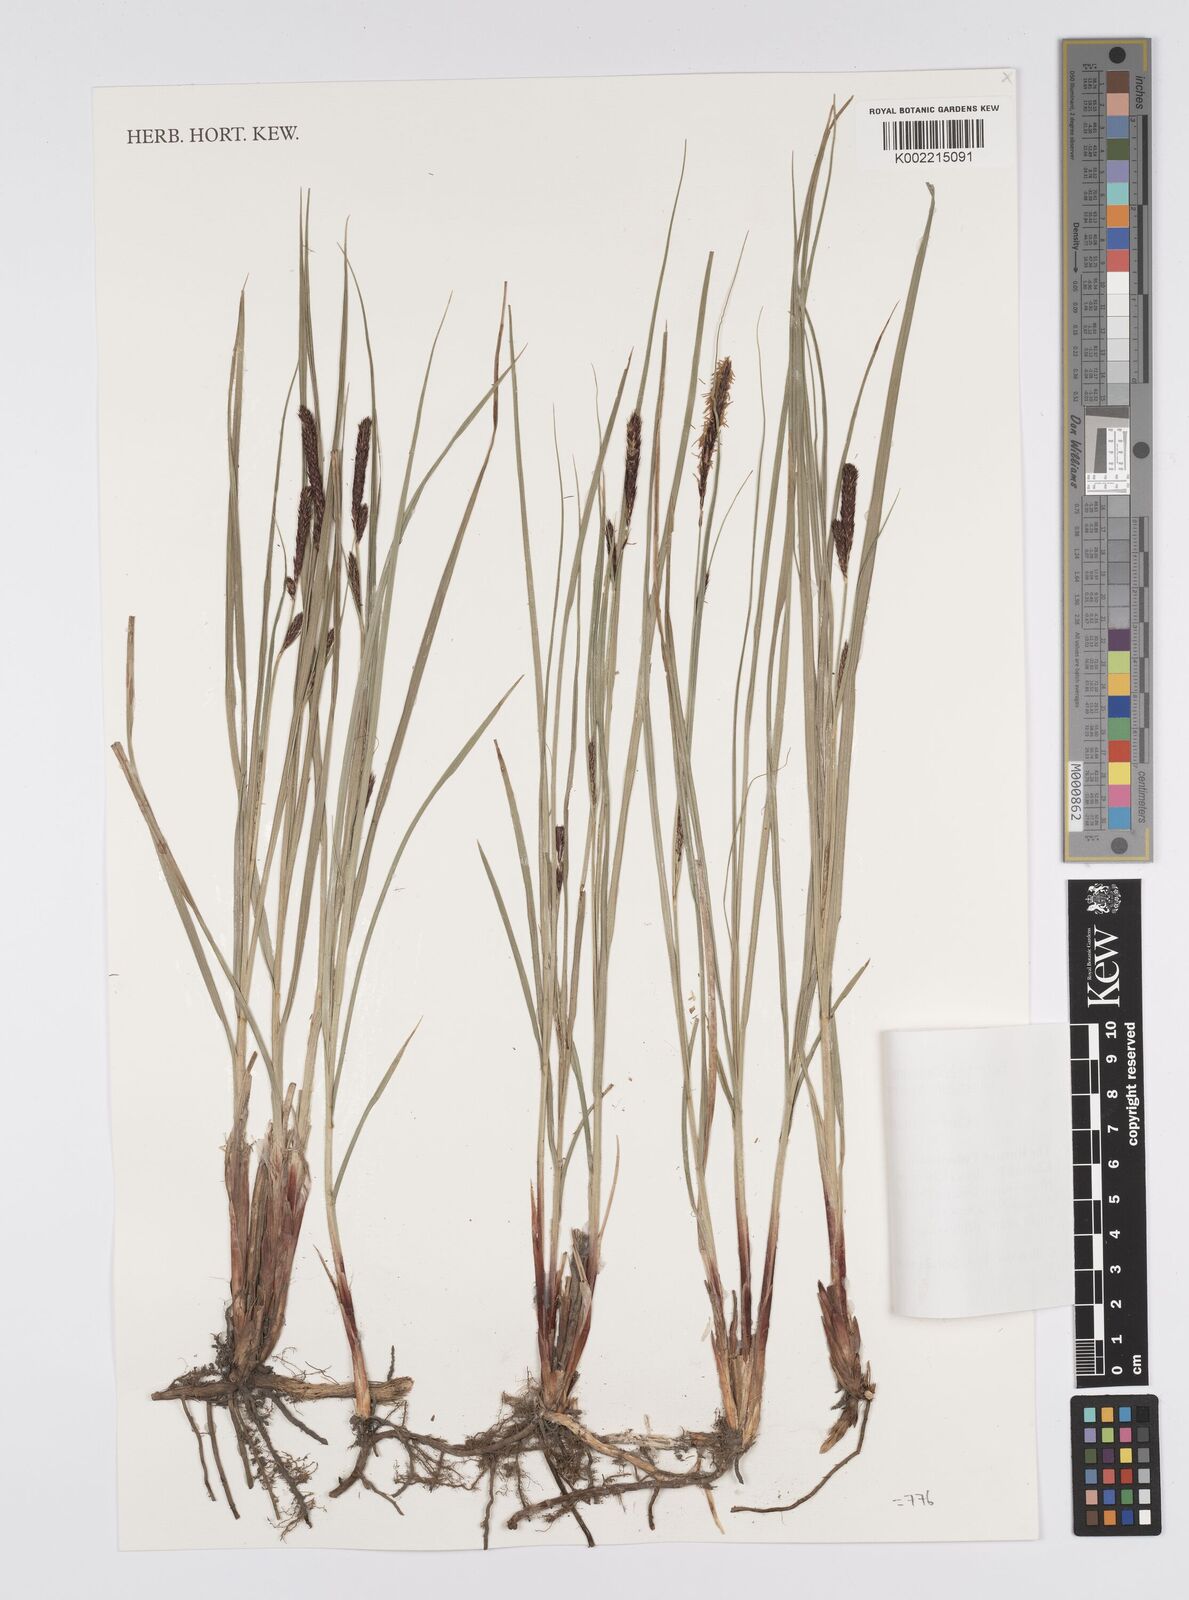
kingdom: Plantae
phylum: Tracheophyta
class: Liliopsida
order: Poales
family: Cyperaceae
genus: Carex
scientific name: Carex melanostachya
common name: Black-spiked sedge
